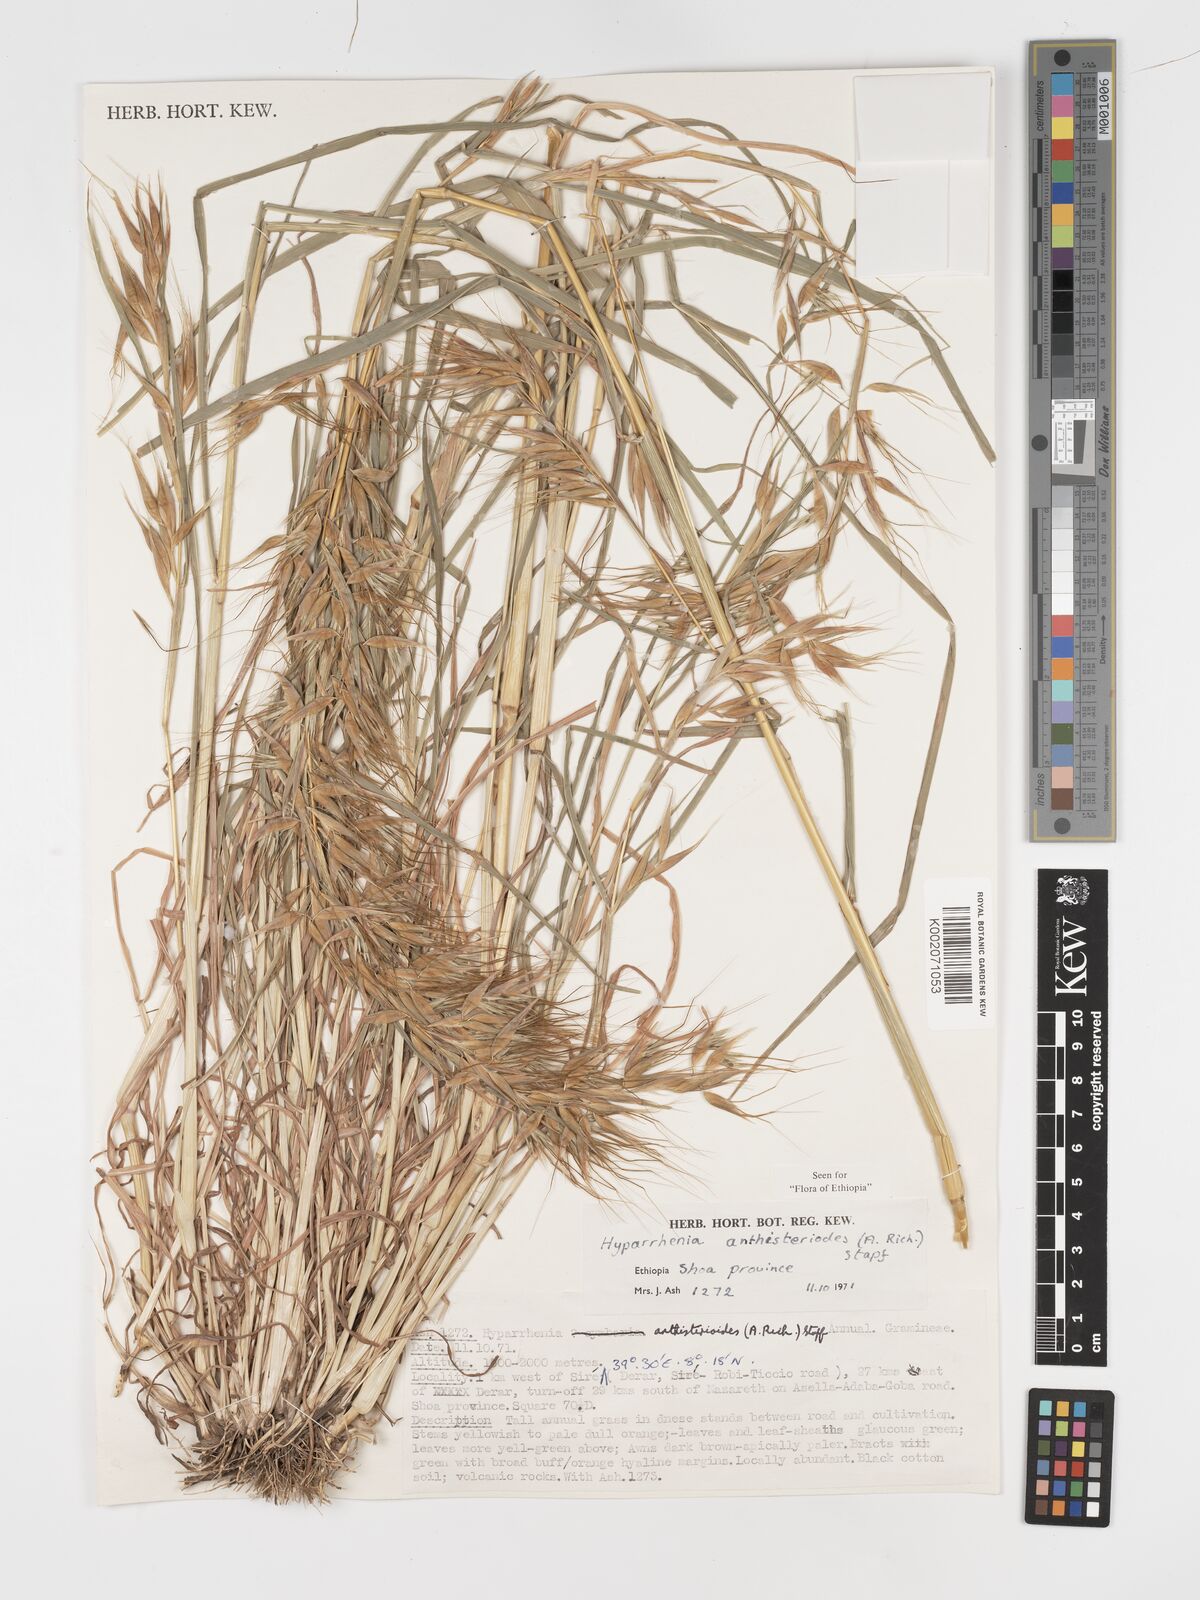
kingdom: Plantae
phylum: Tracheophyta
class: Liliopsida
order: Poales
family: Poaceae
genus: Hyparrhenia
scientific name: Hyparrhenia anthistirioides
